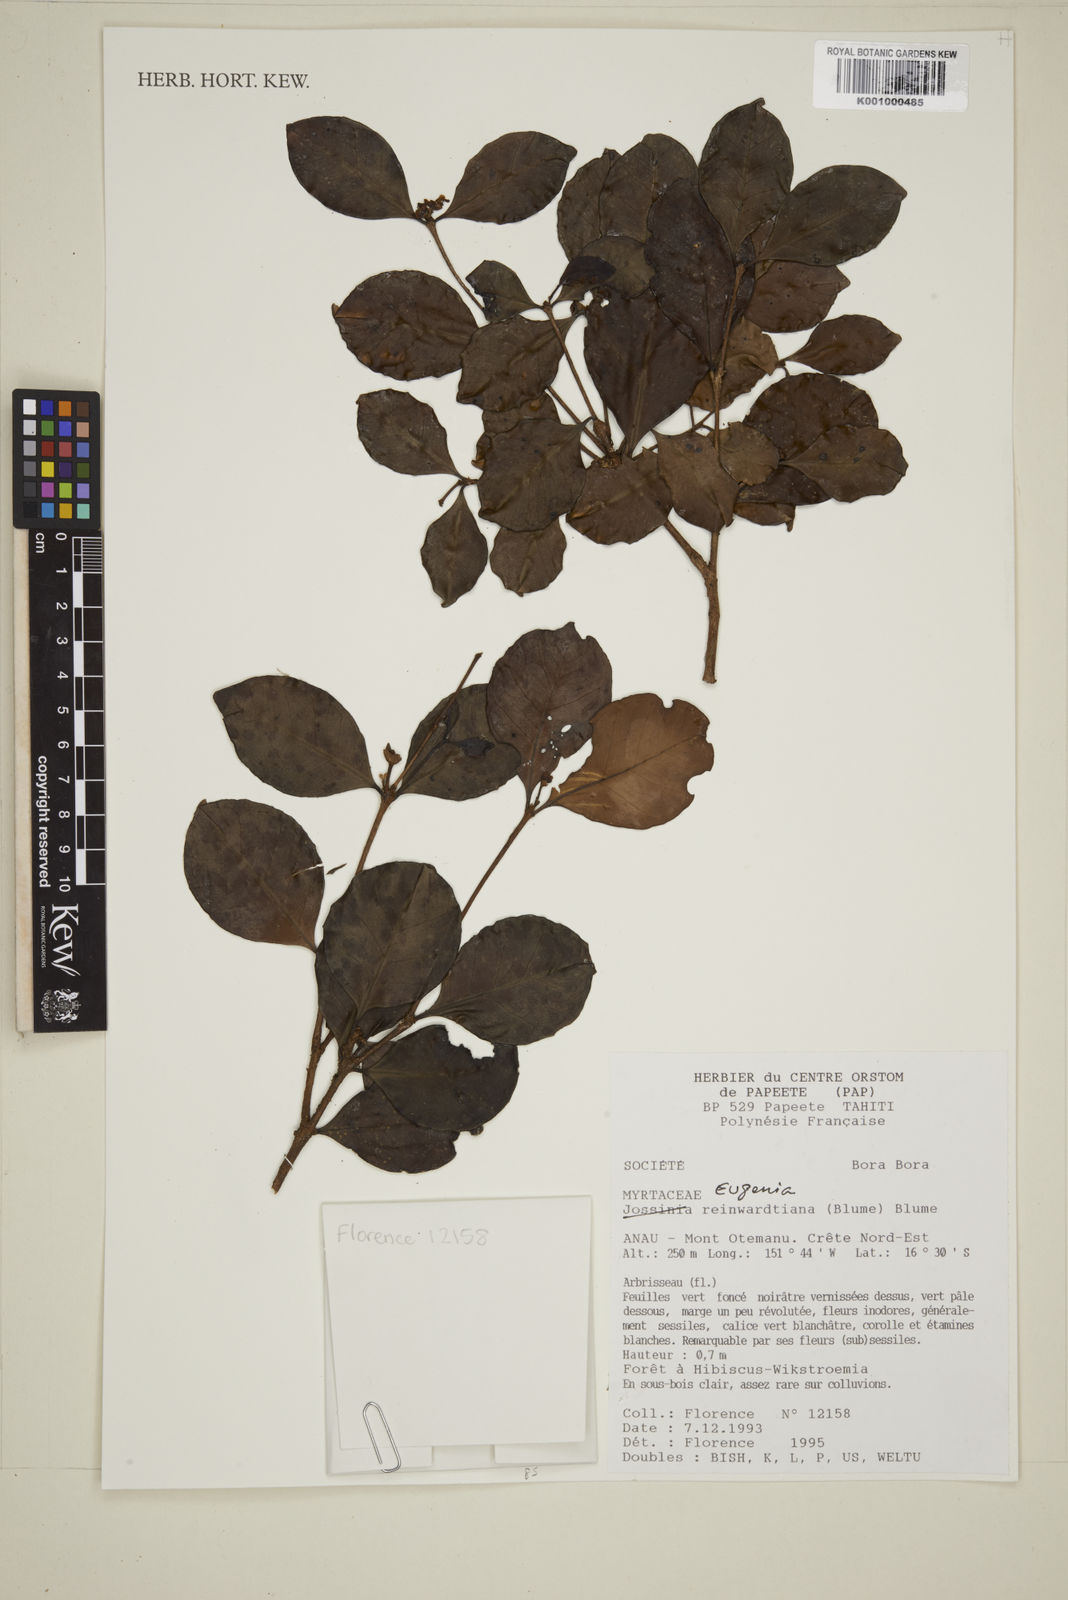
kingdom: Plantae
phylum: Tracheophyta
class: Magnoliopsida
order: Myrtales
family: Myrtaceae
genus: Eugenia
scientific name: Eugenia reinwardtiana
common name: Cedar bay-cherry
